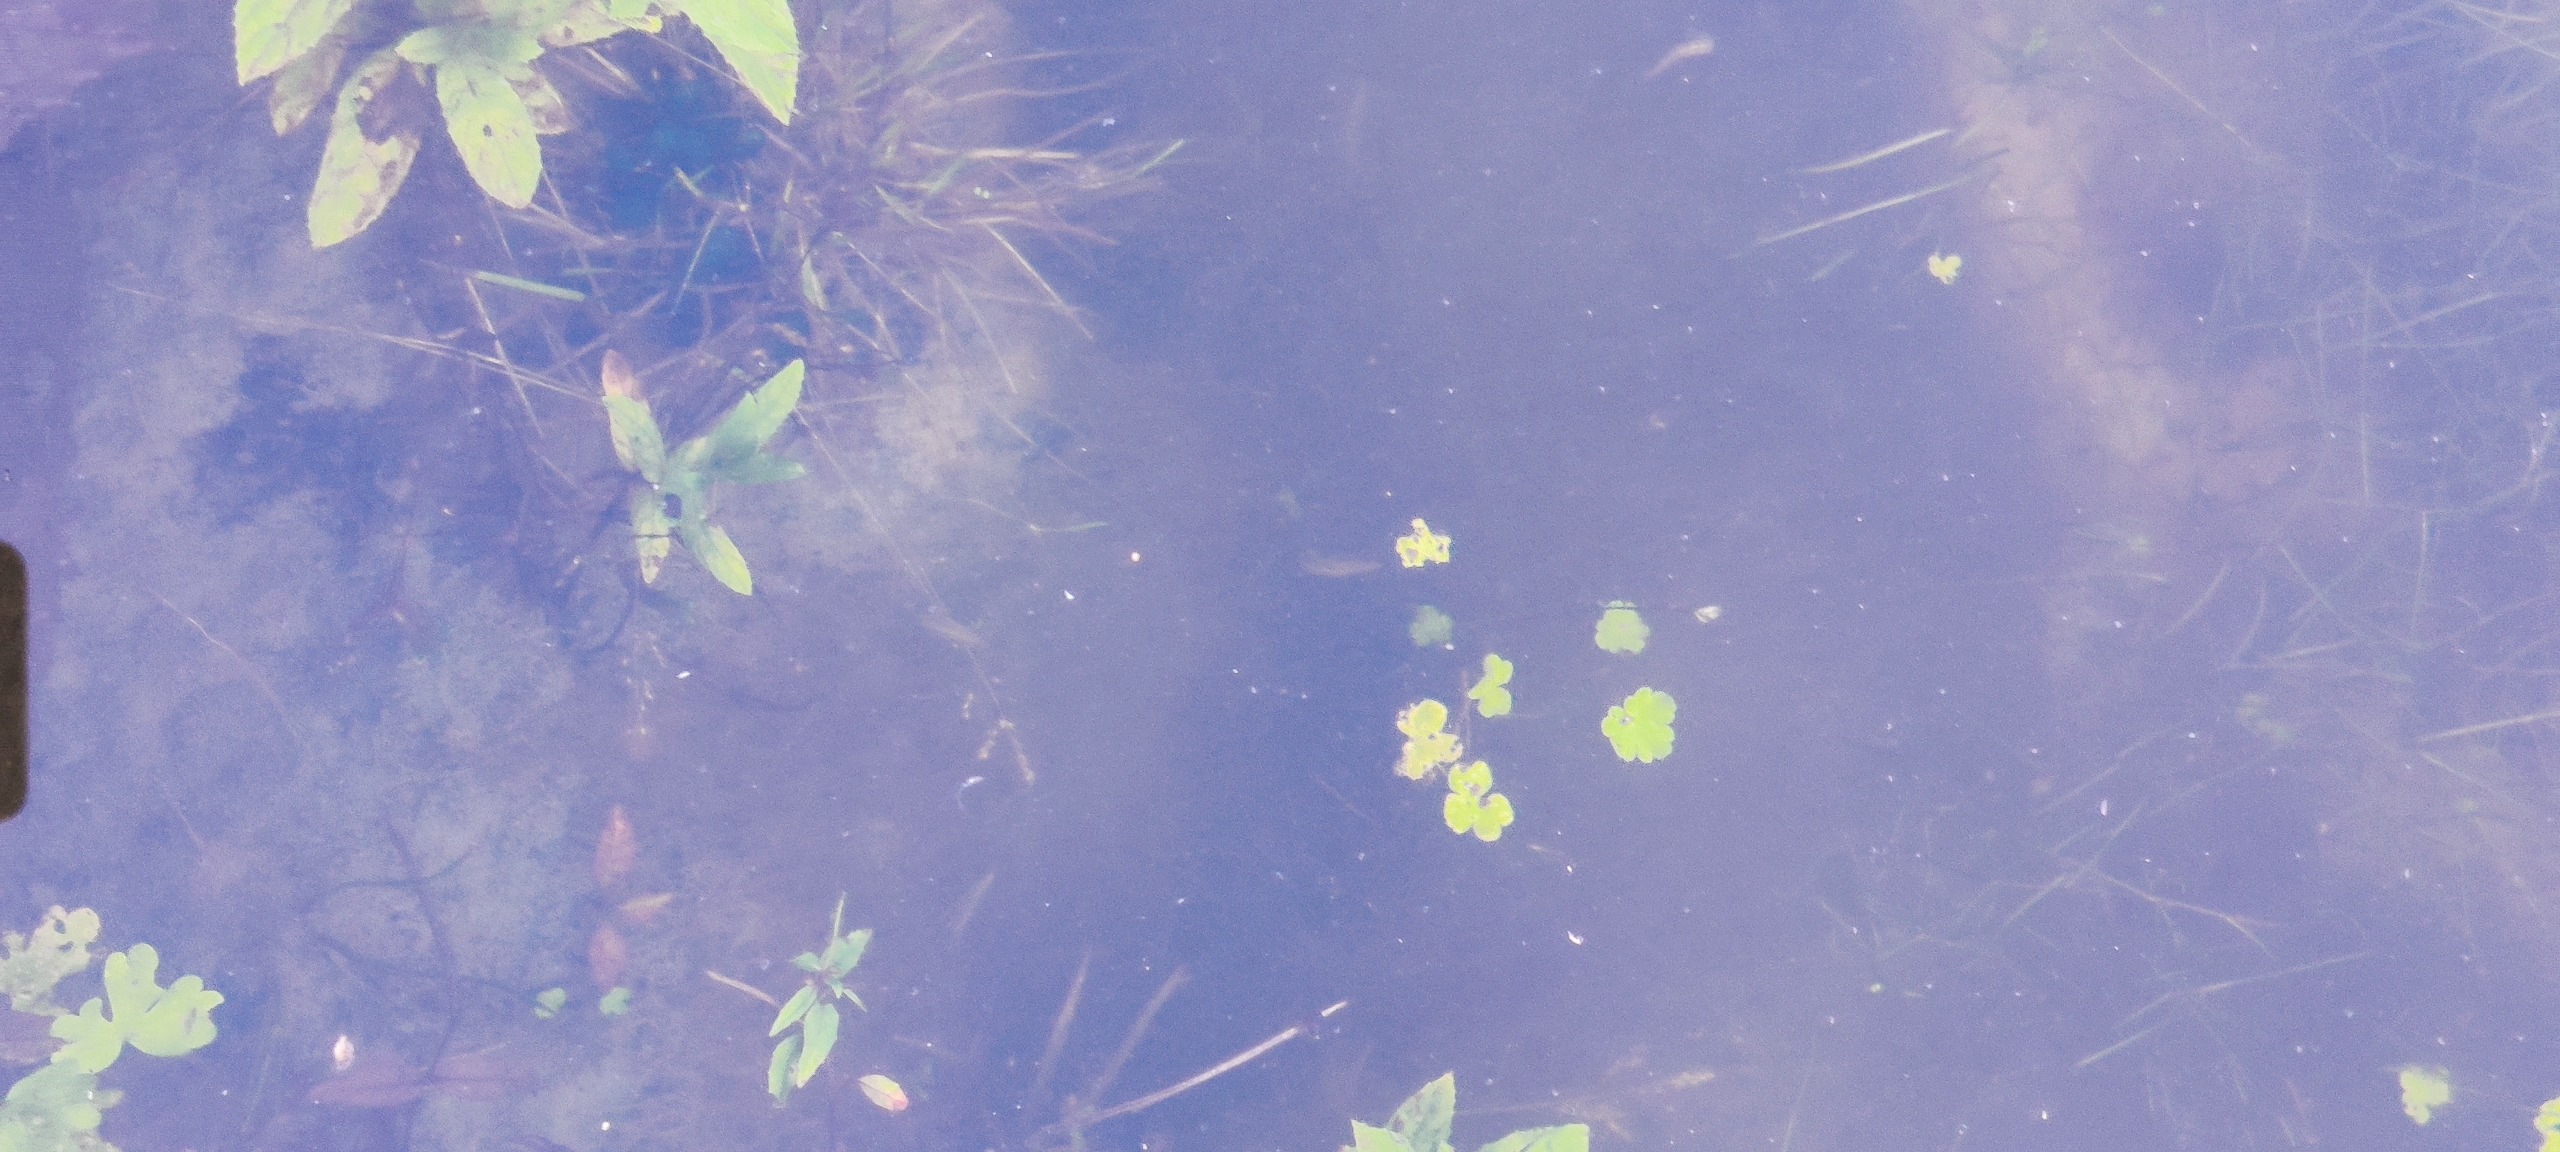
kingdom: Plantae
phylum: Tracheophyta
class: Magnoliopsida
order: Ranunculales
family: Ranunculaceae
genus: Ranunculus
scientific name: Ranunculus sceleratus
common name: Tigger-ranunkel
